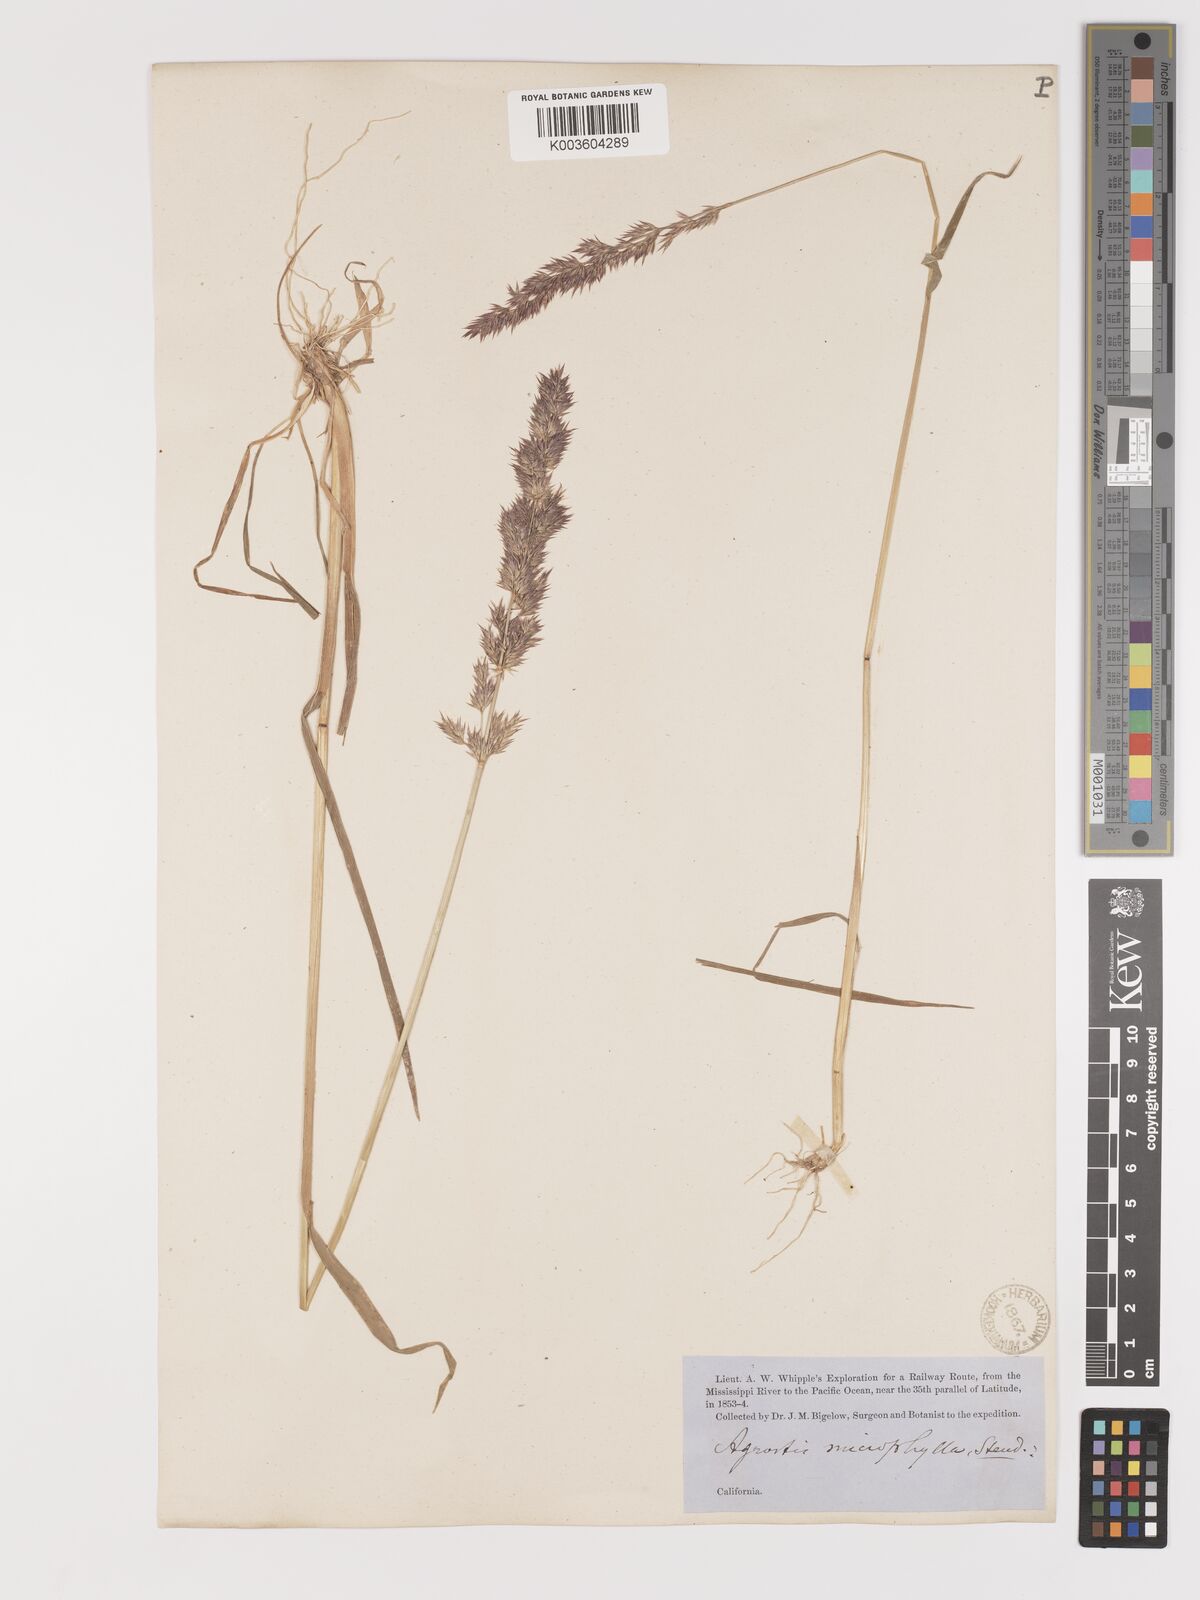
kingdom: Plantae
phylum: Tracheophyta
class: Liliopsida
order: Poales
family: Poaceae
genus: Agrostis
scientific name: Agrostis exarata
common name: Spike bent
